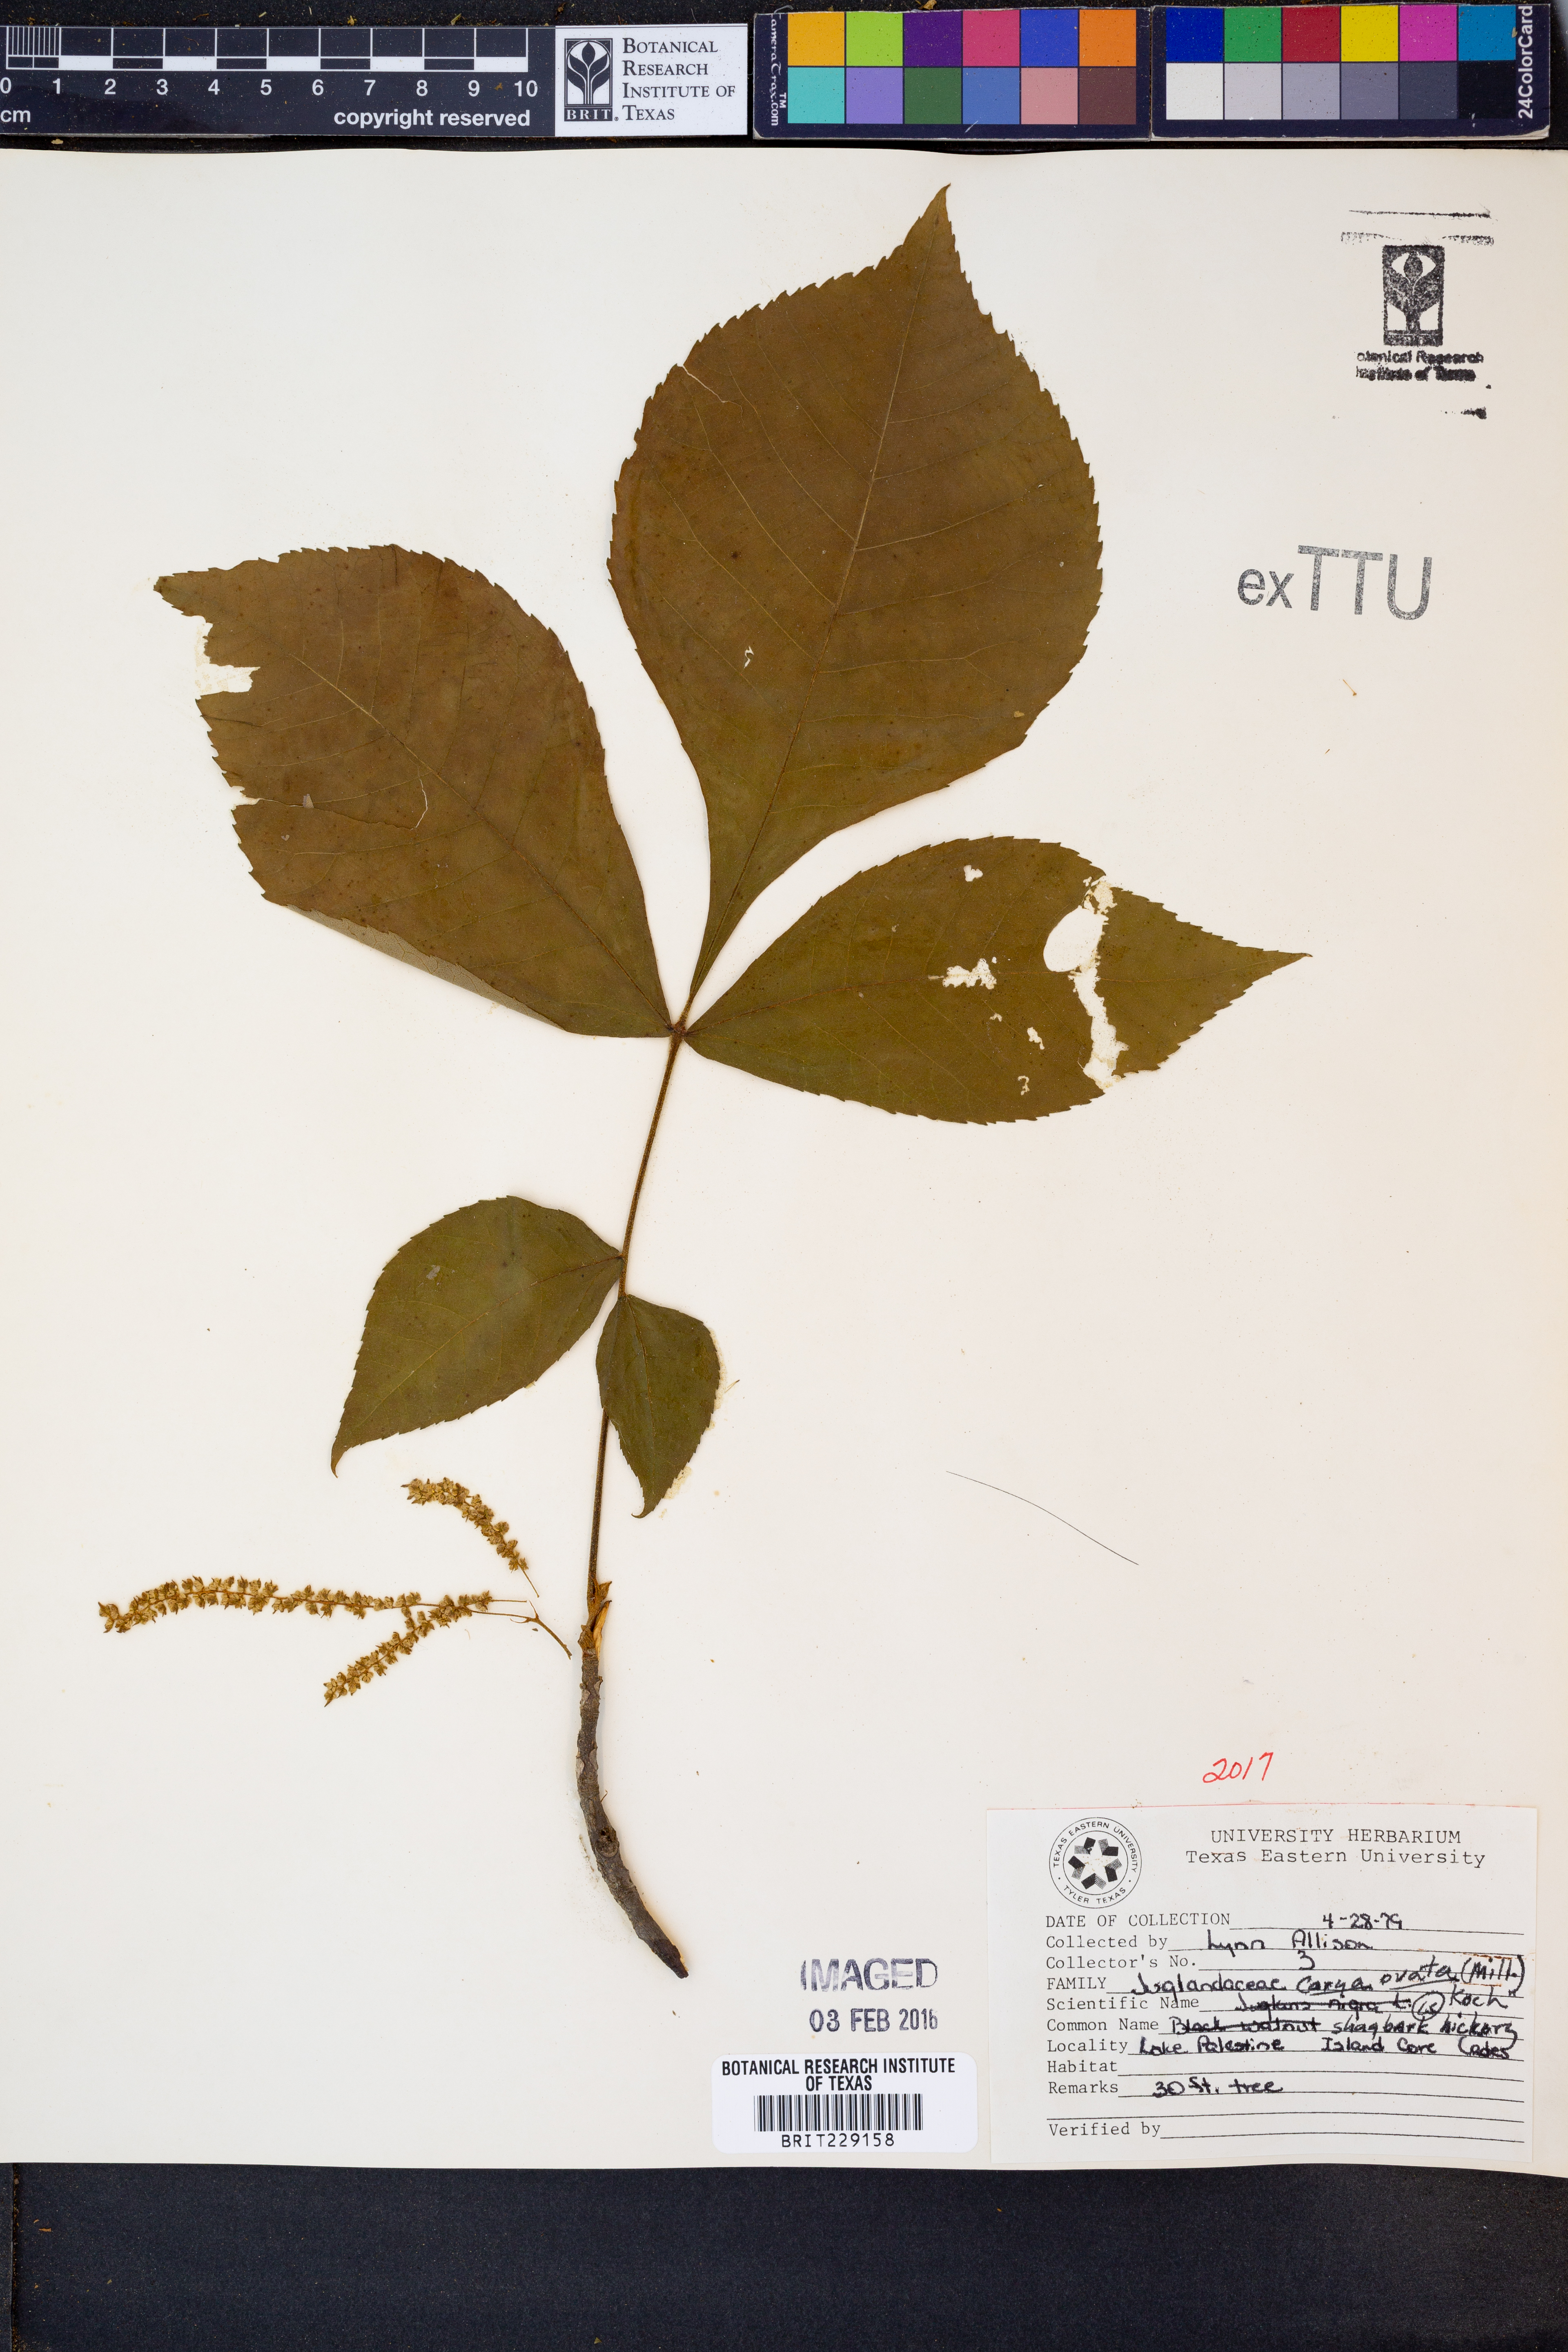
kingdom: Plantae
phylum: Tracheophyta
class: Magnoliopsida
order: Fagales
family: Juglandaceae
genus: Carya
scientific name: Carya ovata
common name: Shagbark hickory
